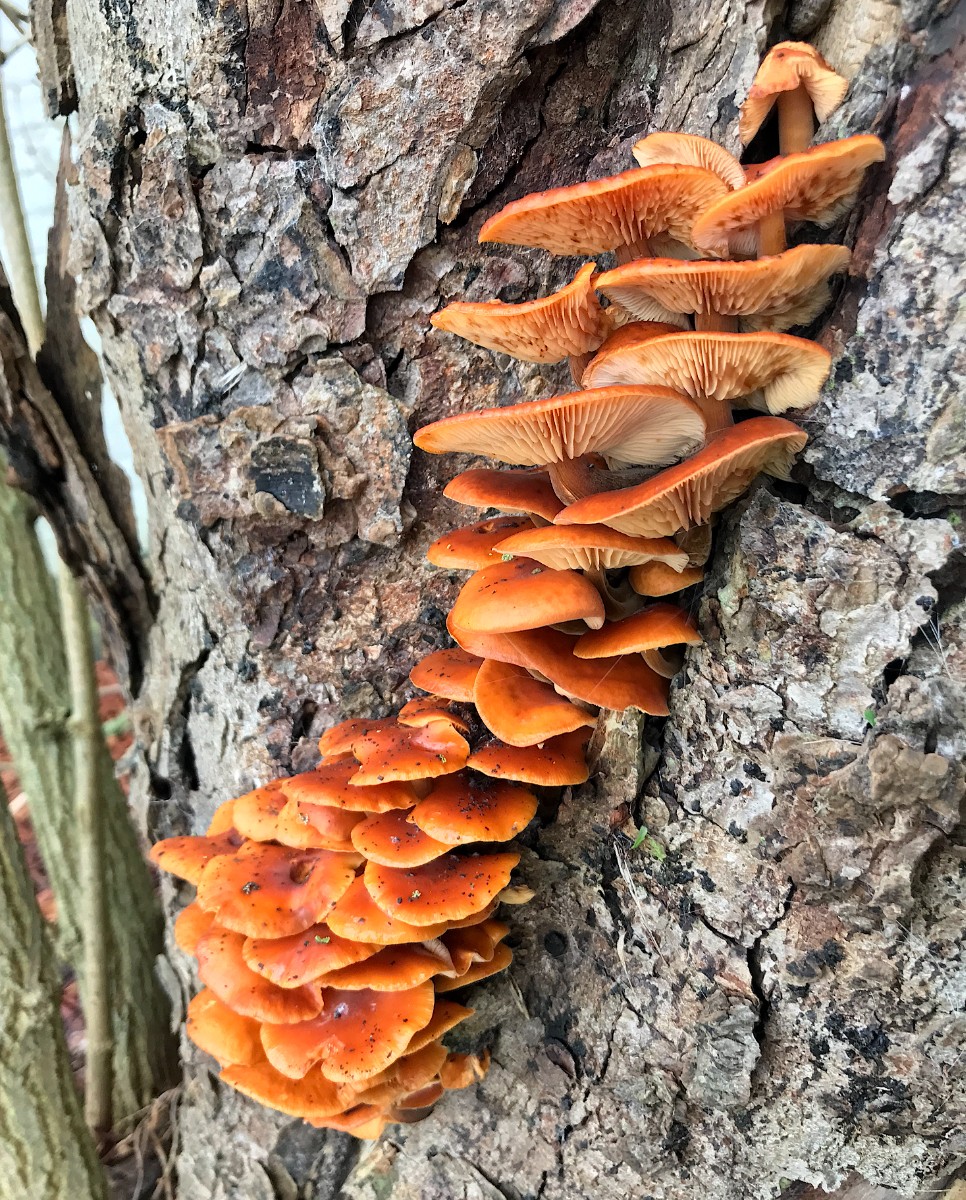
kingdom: Fungi
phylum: Basidiomycota
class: Agaricomycetes
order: Agaricales
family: Physalacriaceae
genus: Flammulina
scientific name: Flammulina velutipes
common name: gul fløjlsfod
